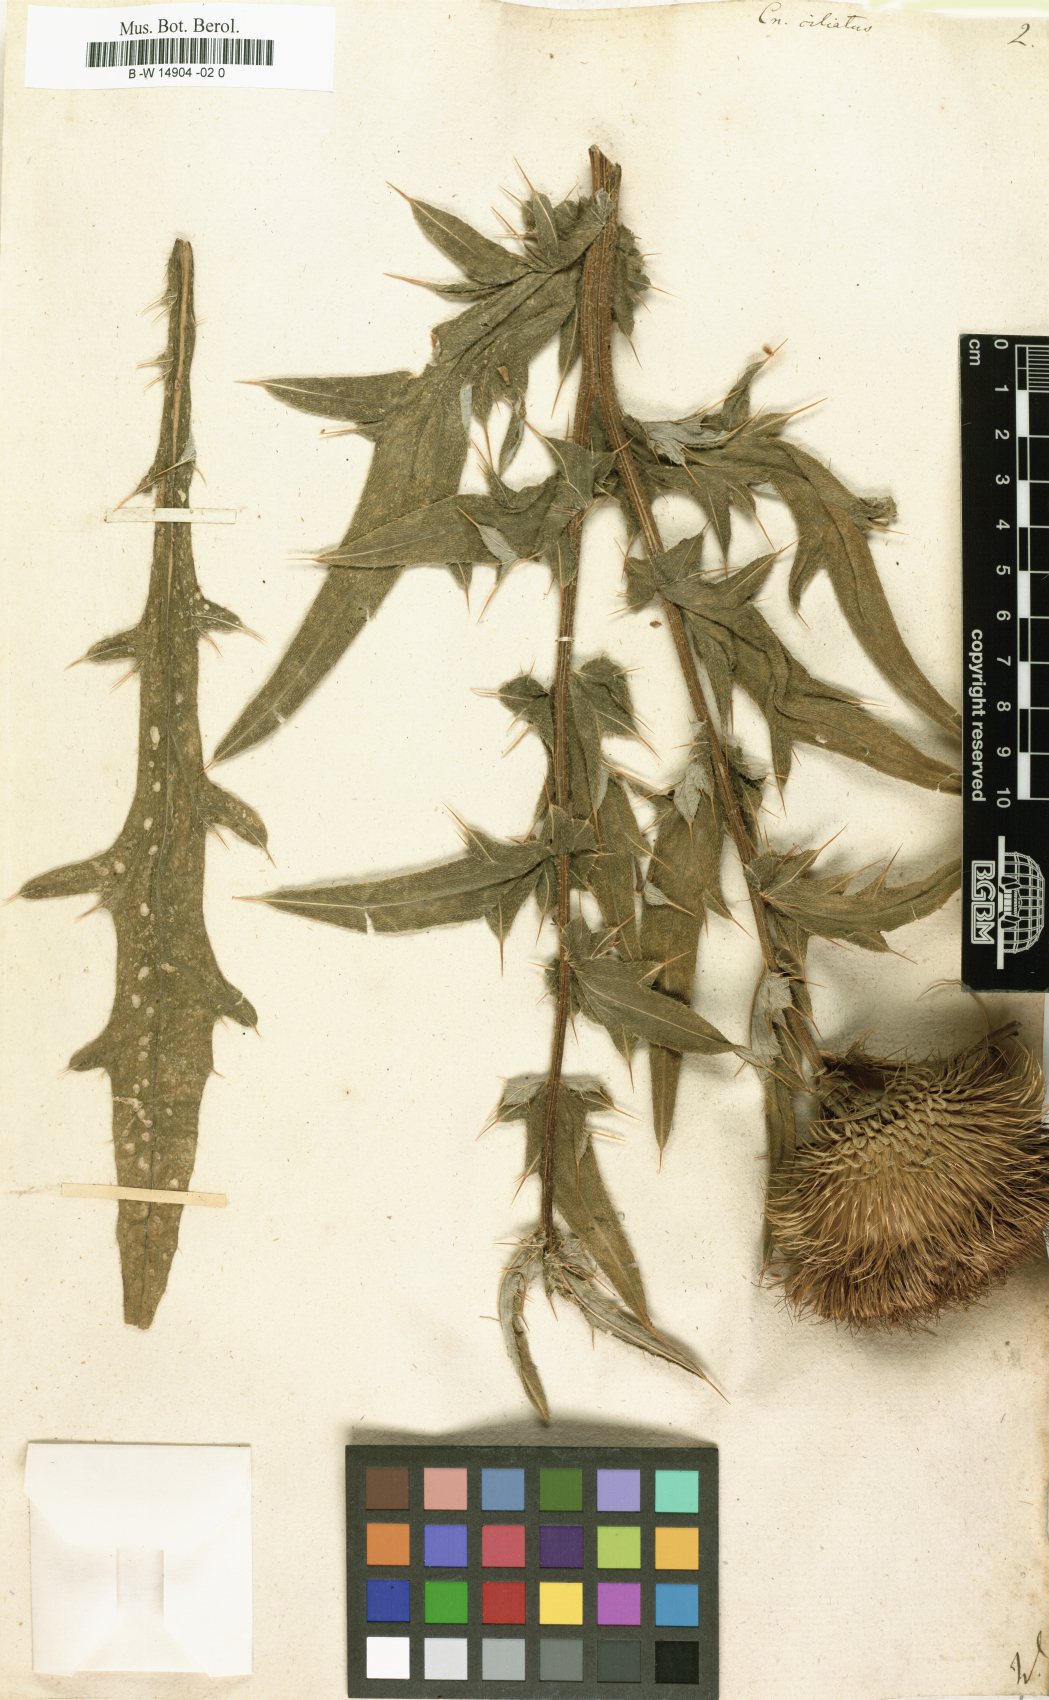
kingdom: Plantae
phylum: Tracheophyta
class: Magnoliopsida
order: Asterales
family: Asteraceae
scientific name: Asteraceae
